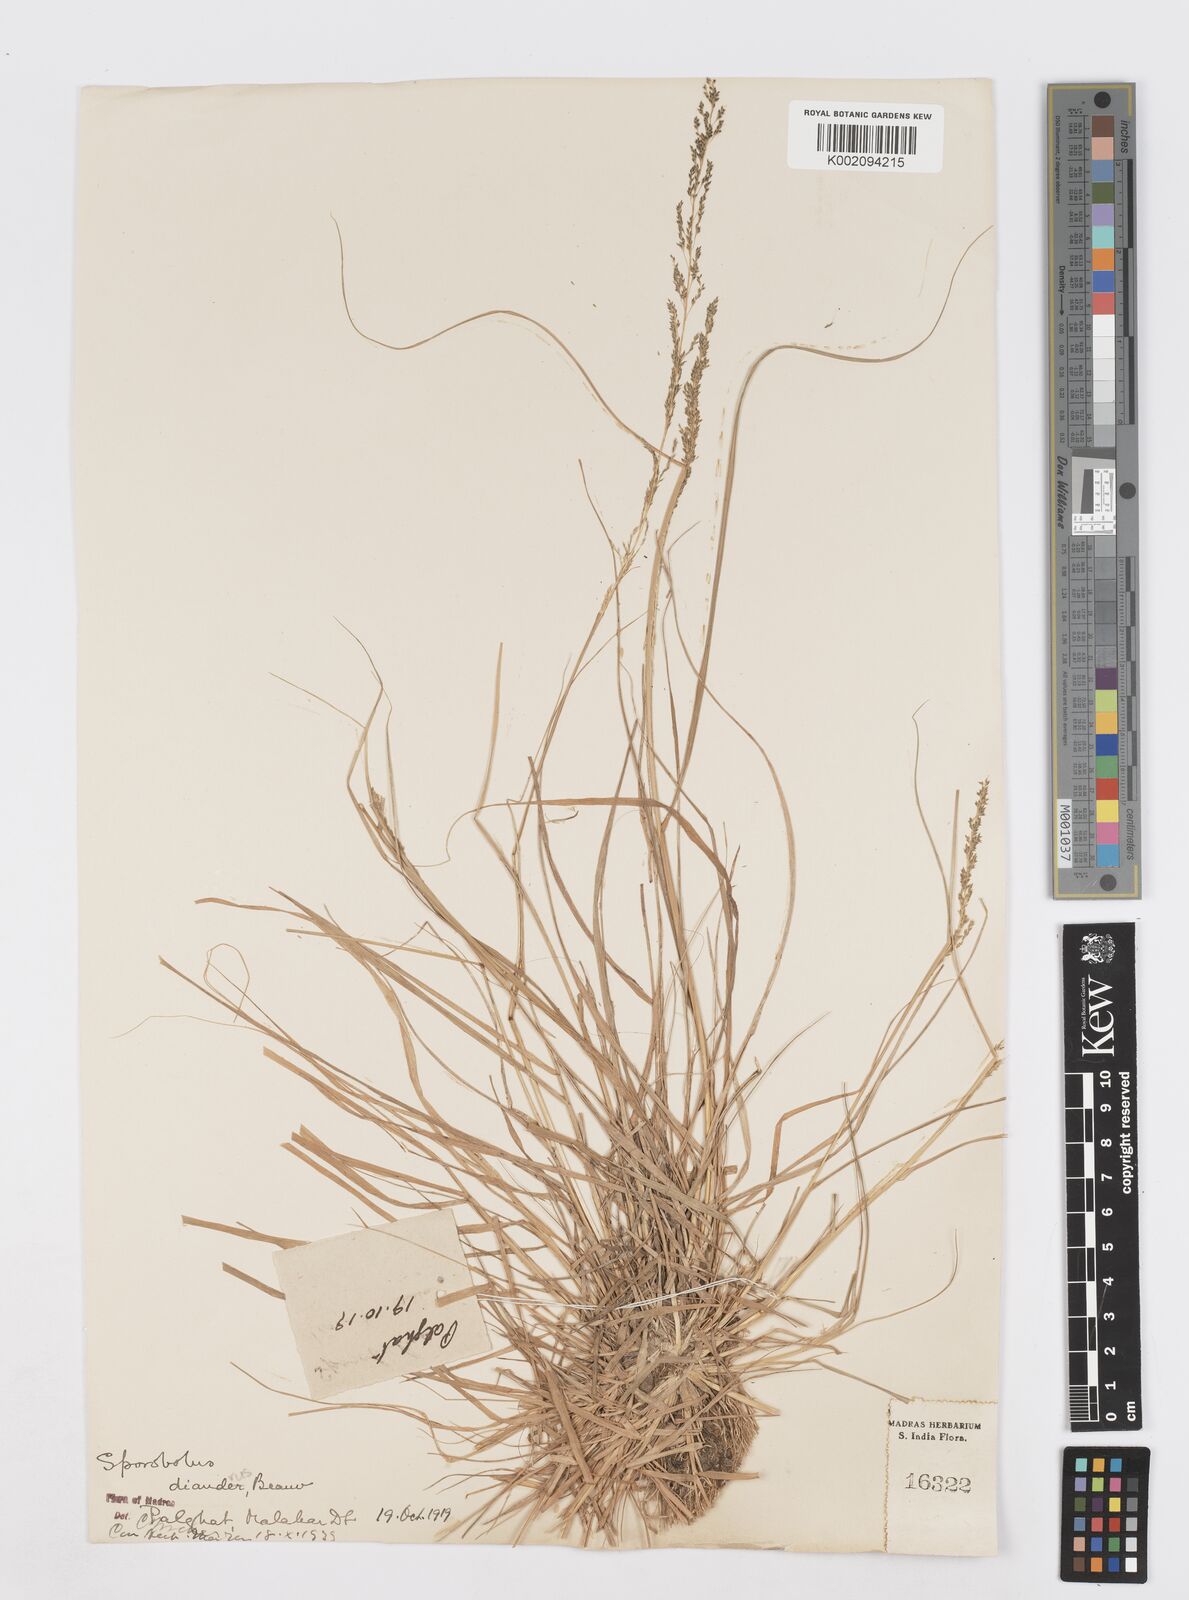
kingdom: Plantae
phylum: Tracheophyta
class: Liliopsida
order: Poales
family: Poaceae
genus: Sporobolus
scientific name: Sporobolus diandrus
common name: Tussock dropseed
